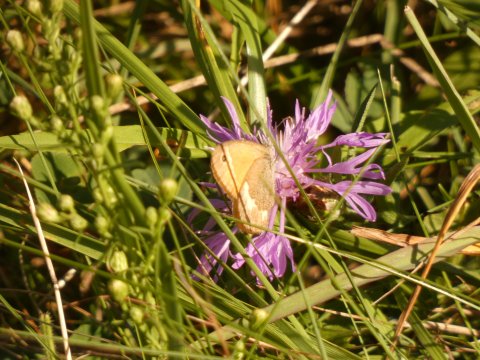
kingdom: Animalia
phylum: Arthropoda
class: Insecta
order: Lepidoptera
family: Nymphalidae
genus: Coenonympha
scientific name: Coenonympha tullia
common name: Large Heath
